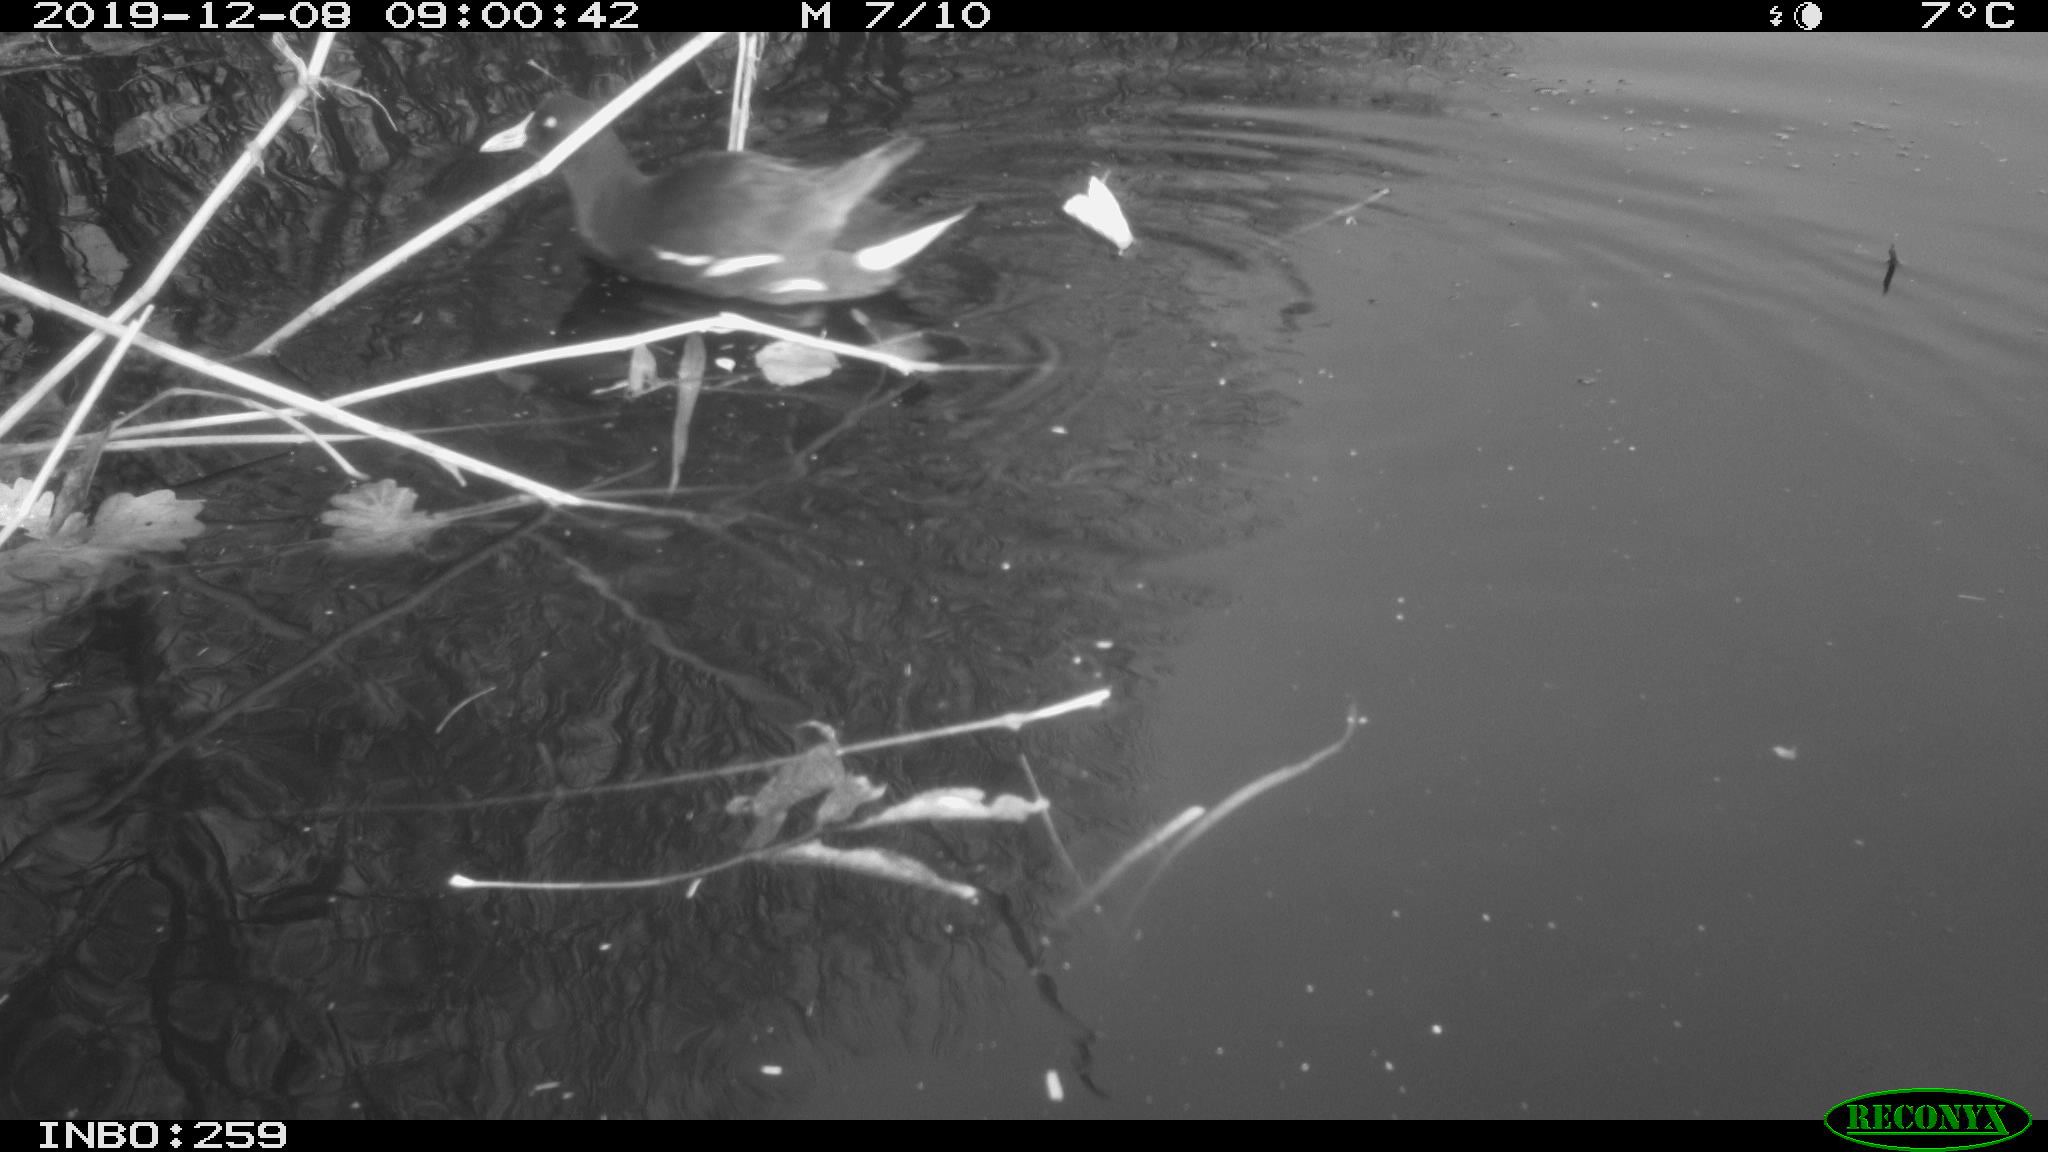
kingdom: Animalia
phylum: Chordata
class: Aves
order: Gruiformes
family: Rallidae
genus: Gallinula
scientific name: Gallinula chloropus
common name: Common moorhen
